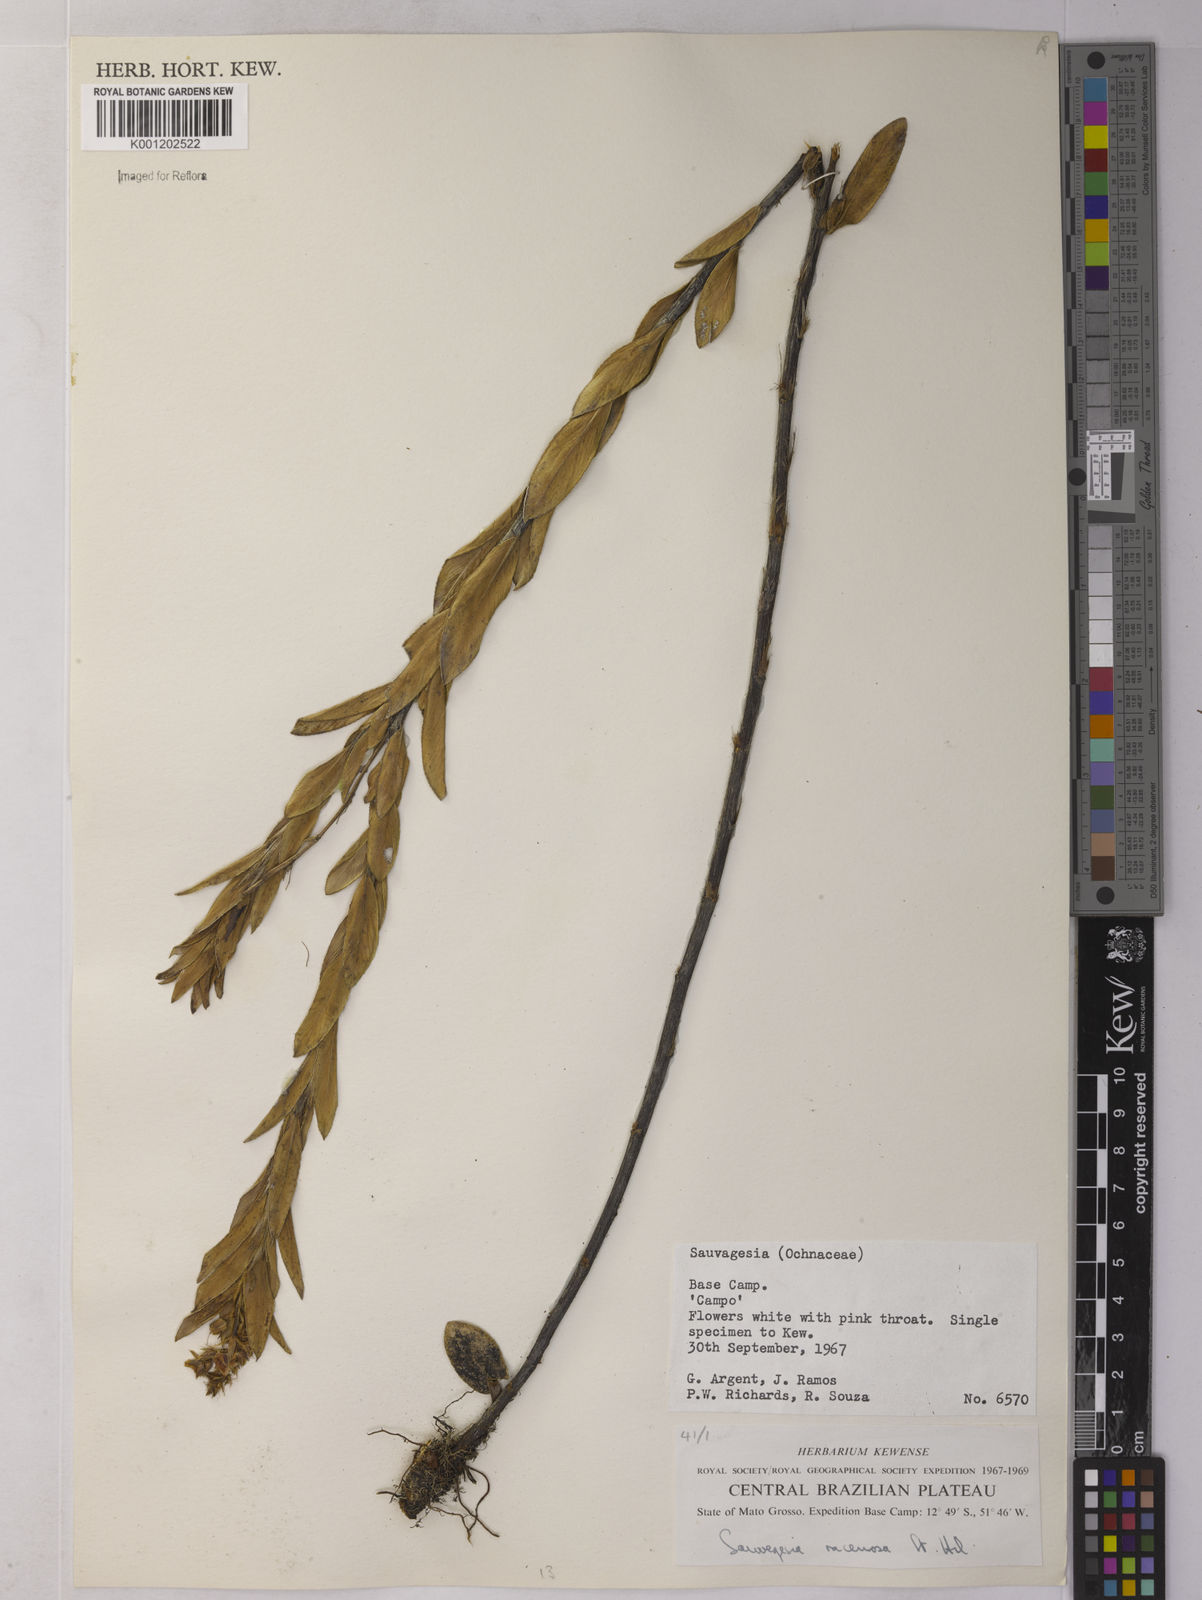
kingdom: Plantae
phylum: Tracheophyta
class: Magnoliopsida
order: Malpighiales
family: Ochnaceae
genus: Sauvagesia
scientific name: Sauvagesia racemosa
